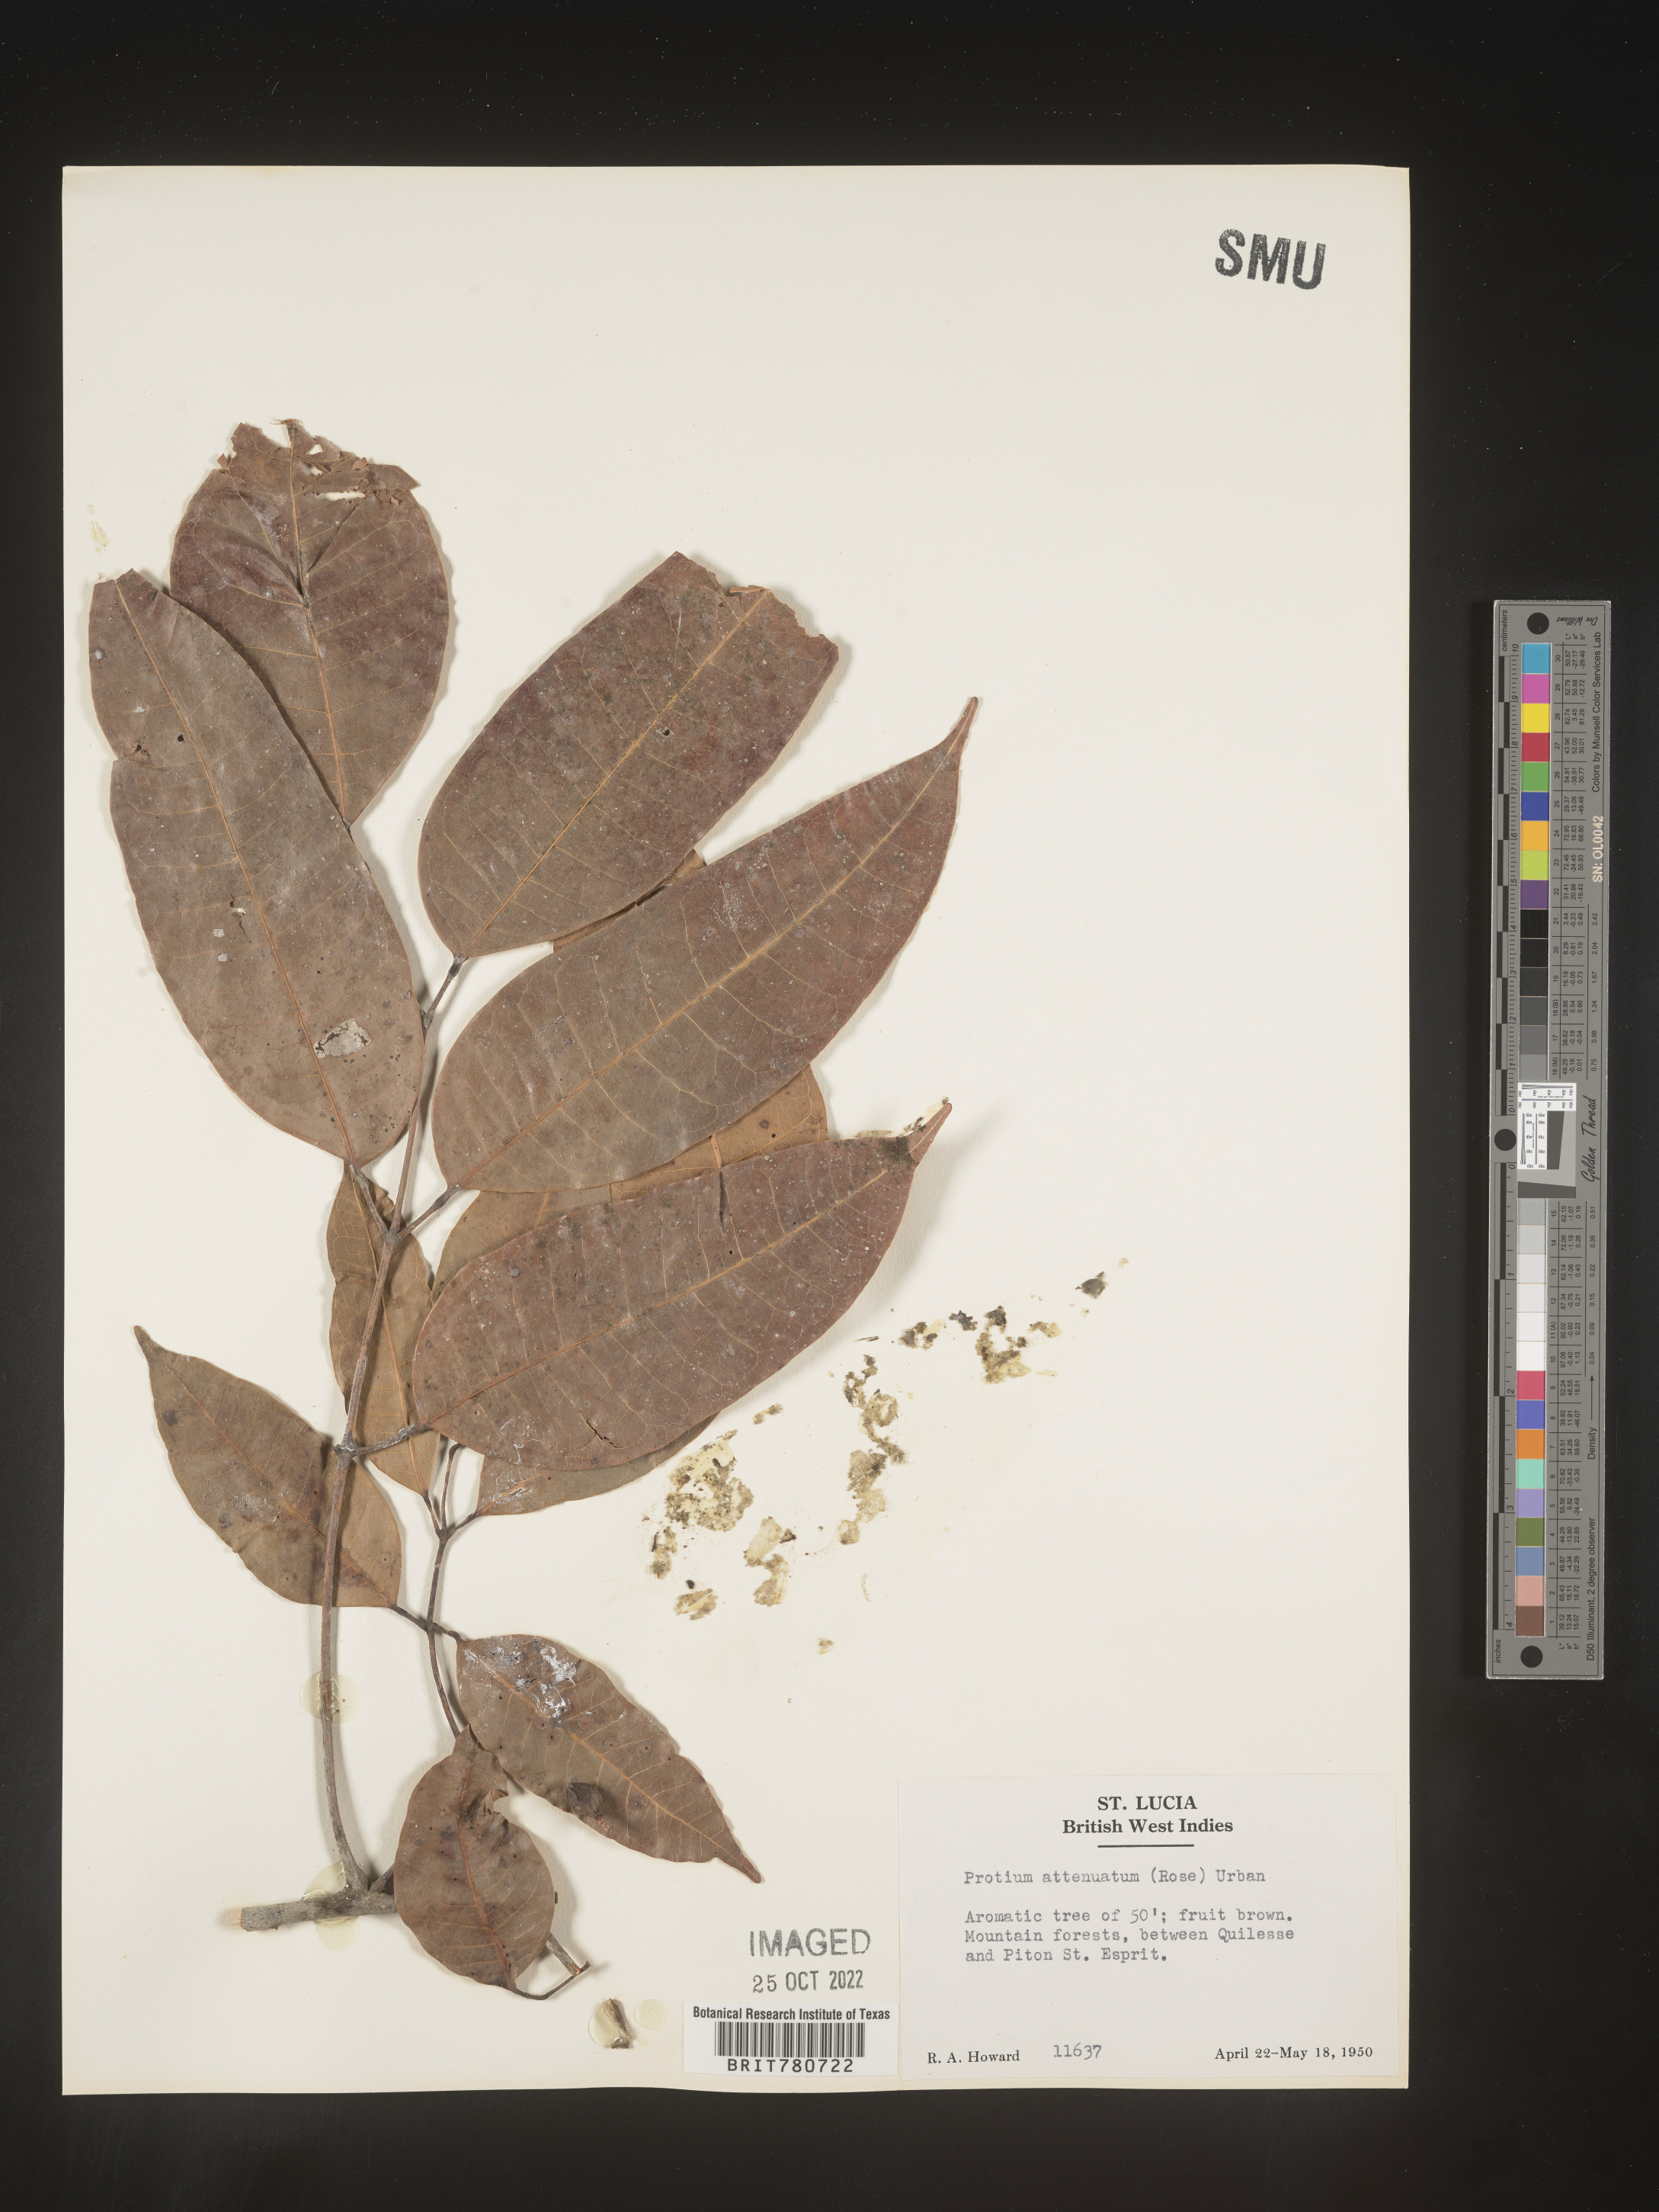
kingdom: Plantae
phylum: Tracheophyta
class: Magnoliopsida
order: Sapindales
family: Burseraceae
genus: Protium
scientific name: Protium
